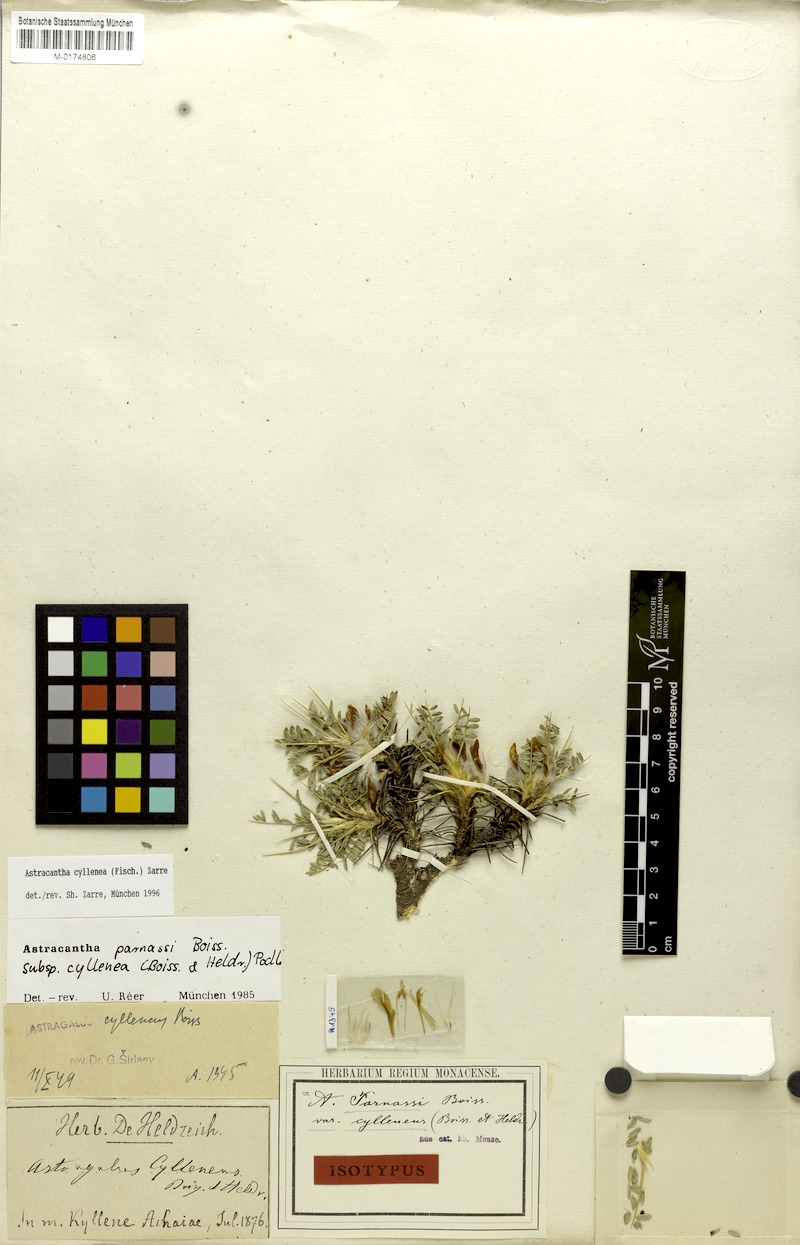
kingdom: Plantae
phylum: Tracheophyta
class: Magnoliopsida
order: Fabales
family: Fabaceae
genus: Astragalus
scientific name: Astragalus cylleneus
